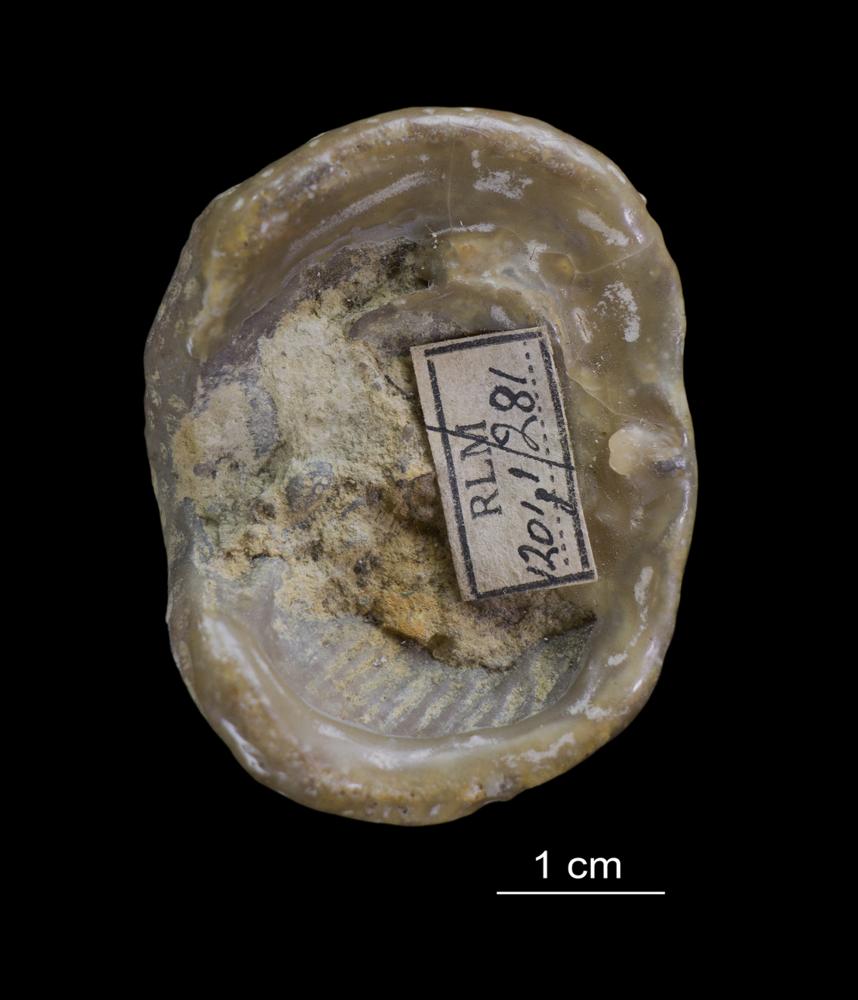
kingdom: Animalia
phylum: Cnidaria
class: Anthozoa
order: Scleractinia
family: Poritidae
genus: Protaraea
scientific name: Protaraea
